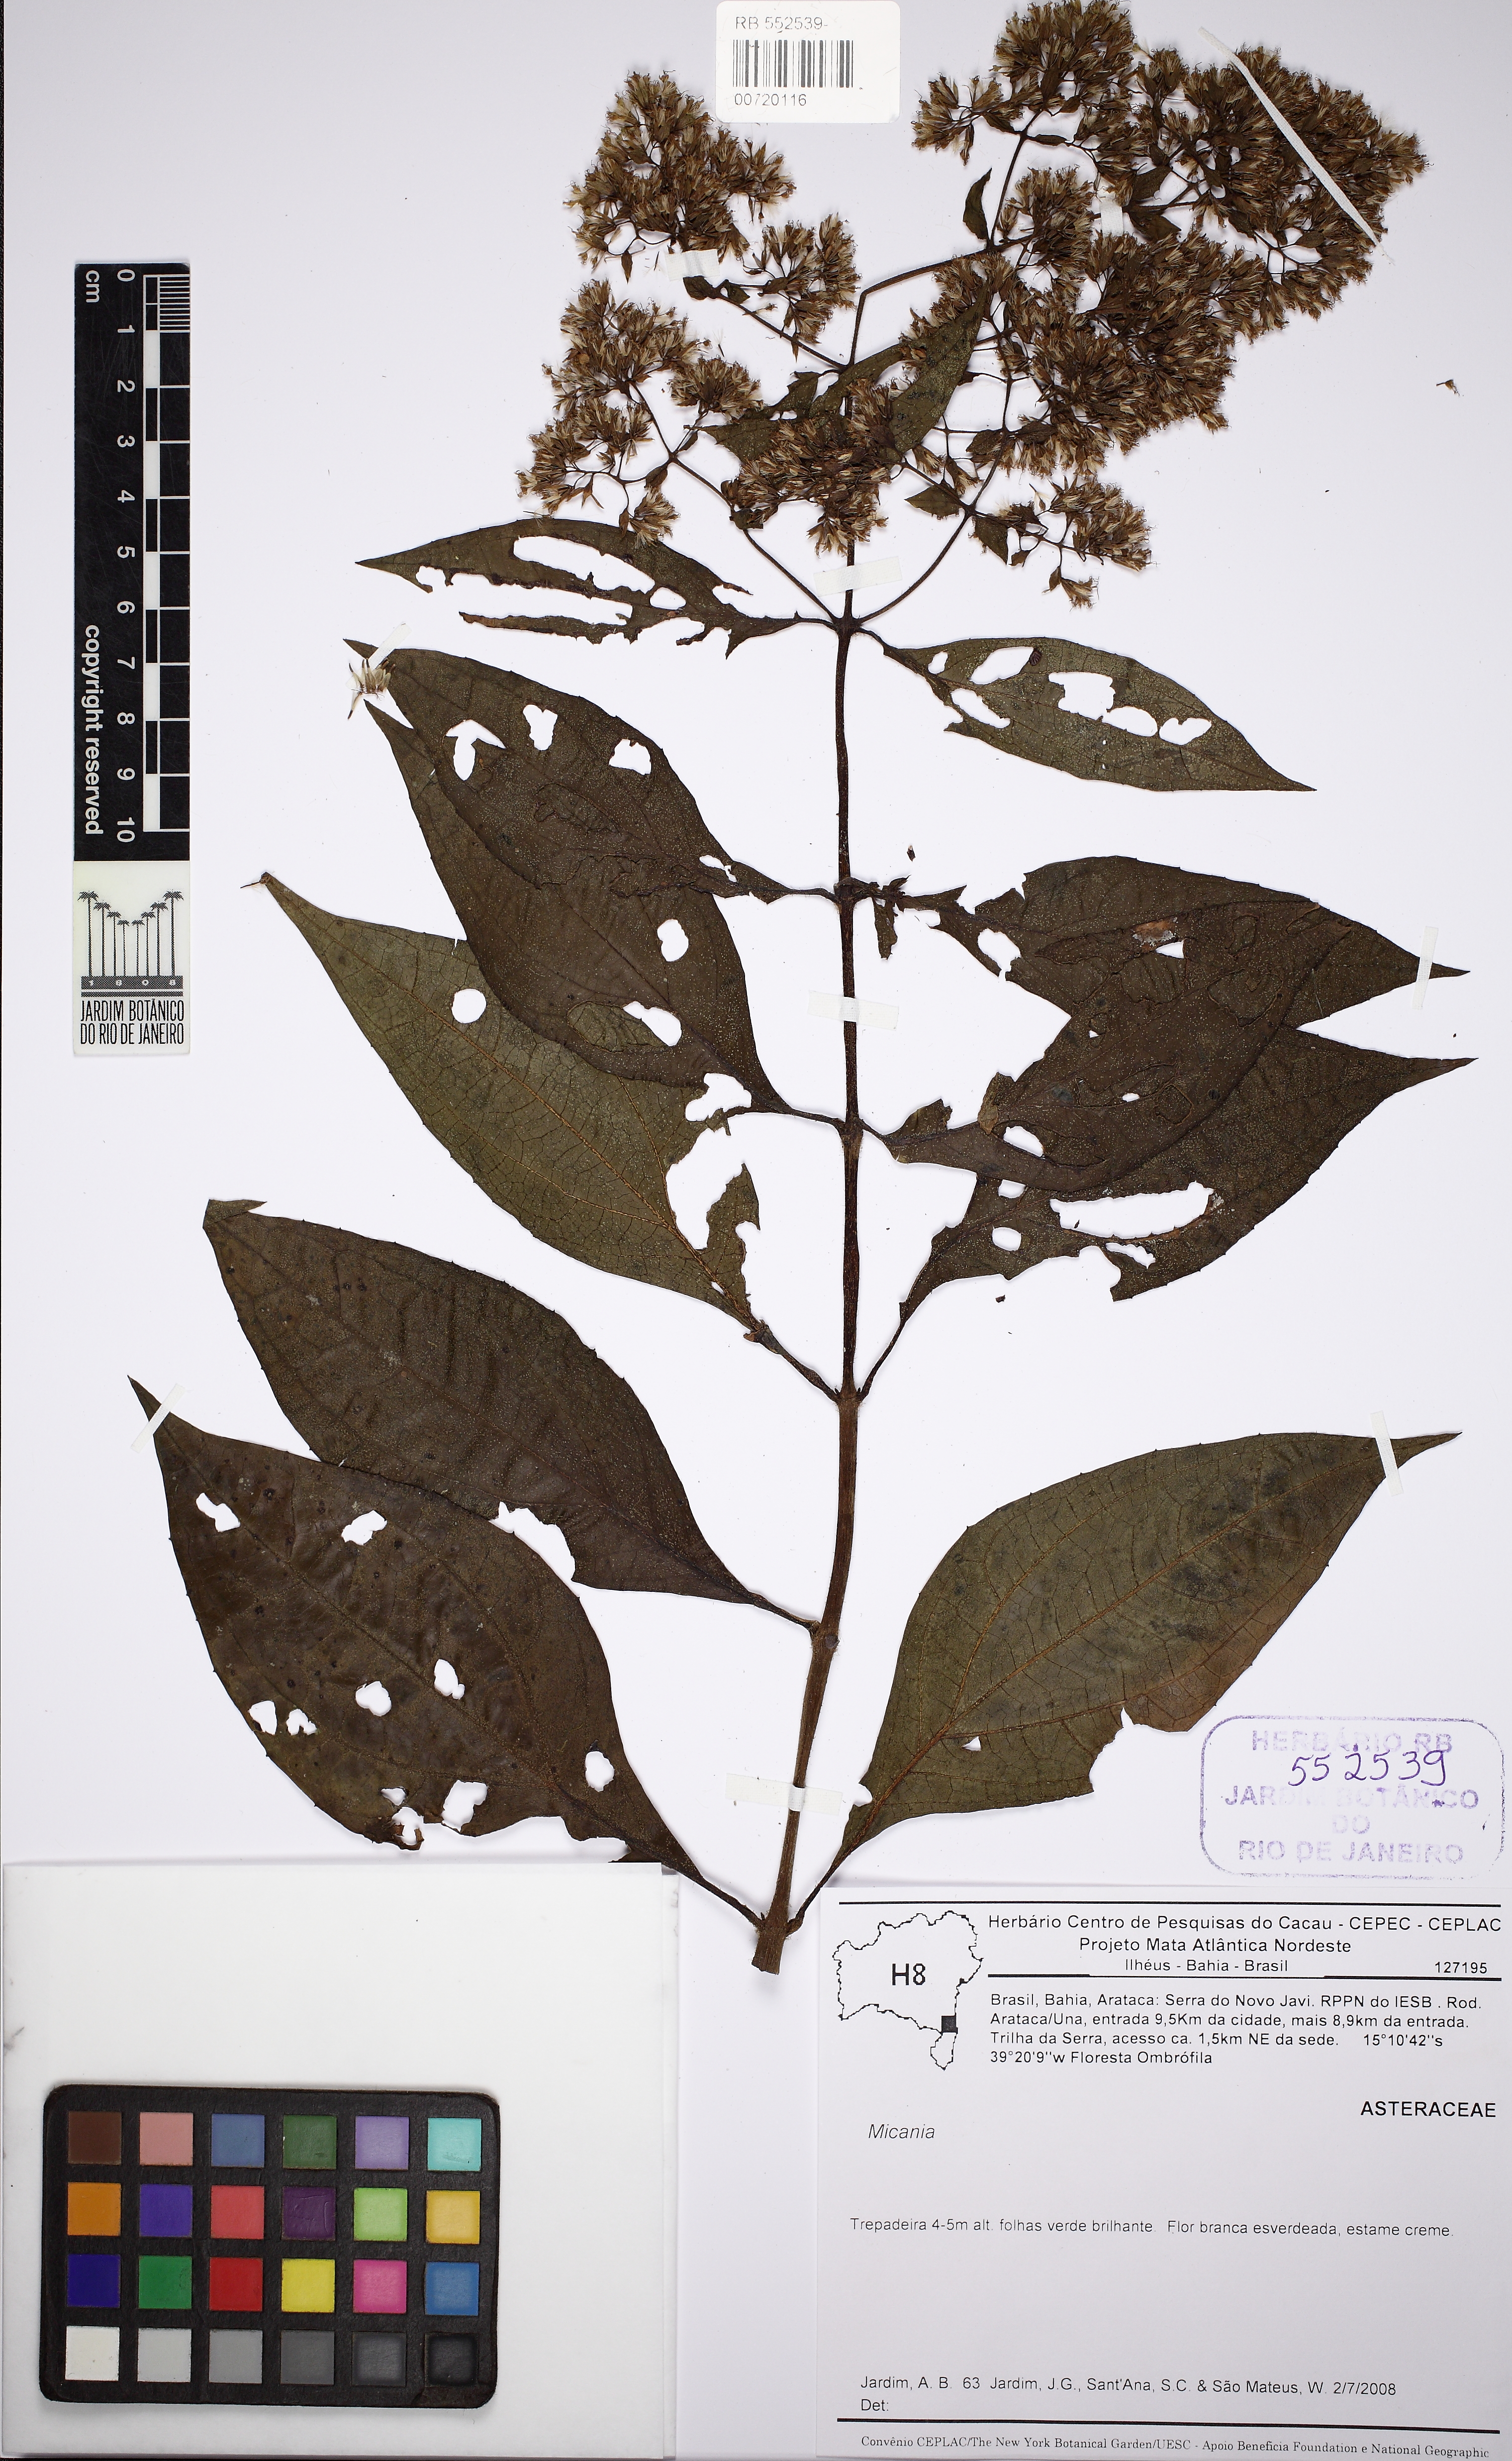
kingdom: Plantae
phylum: Tracheophyta
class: Magnoliopsida
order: Asterales
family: Asteraceae
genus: Mikania
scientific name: Mikania candolleana
